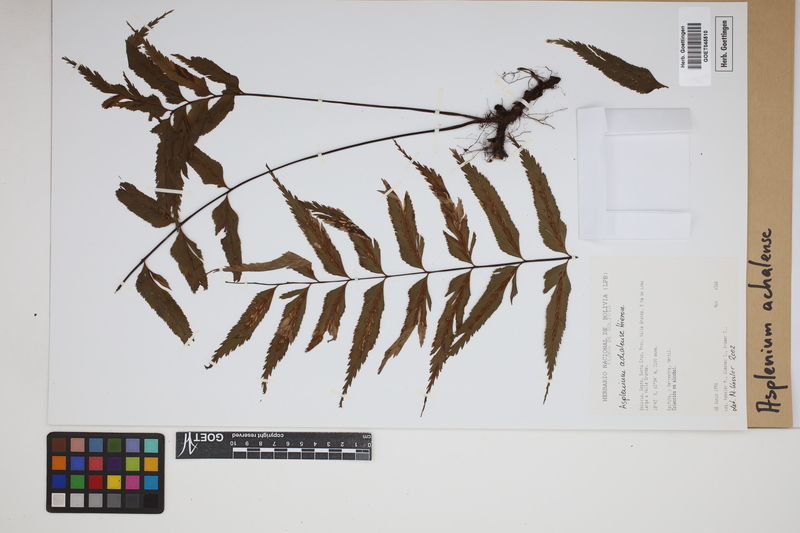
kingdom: Plantae
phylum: Tracheophyta
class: Polypodiopsida
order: Polypodiales
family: Aspleniaceae
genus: Asplenium
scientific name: Asplenium achalense
